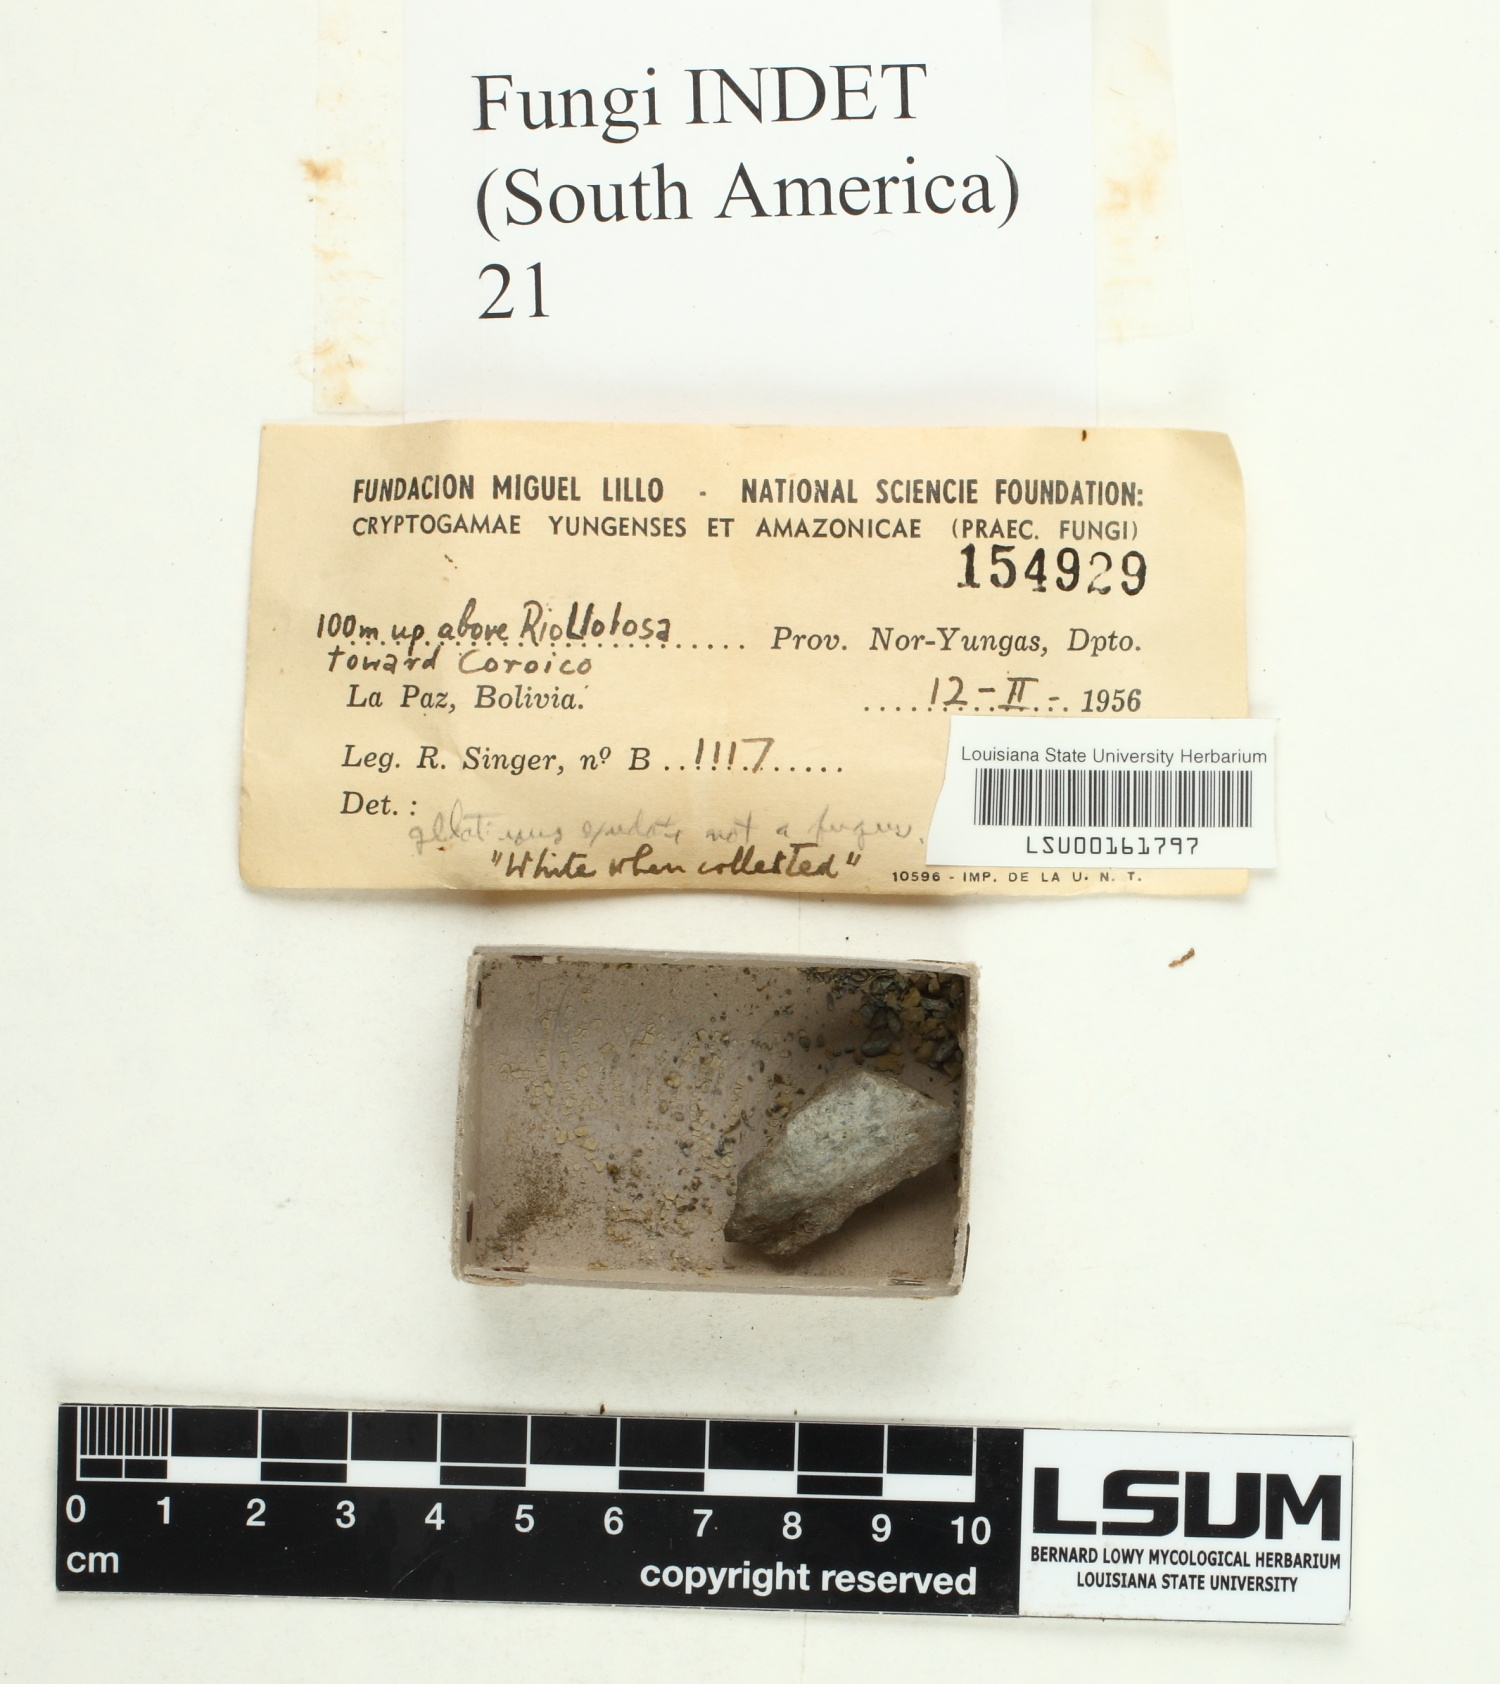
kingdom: Fungi
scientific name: Fungi
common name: Fungi
